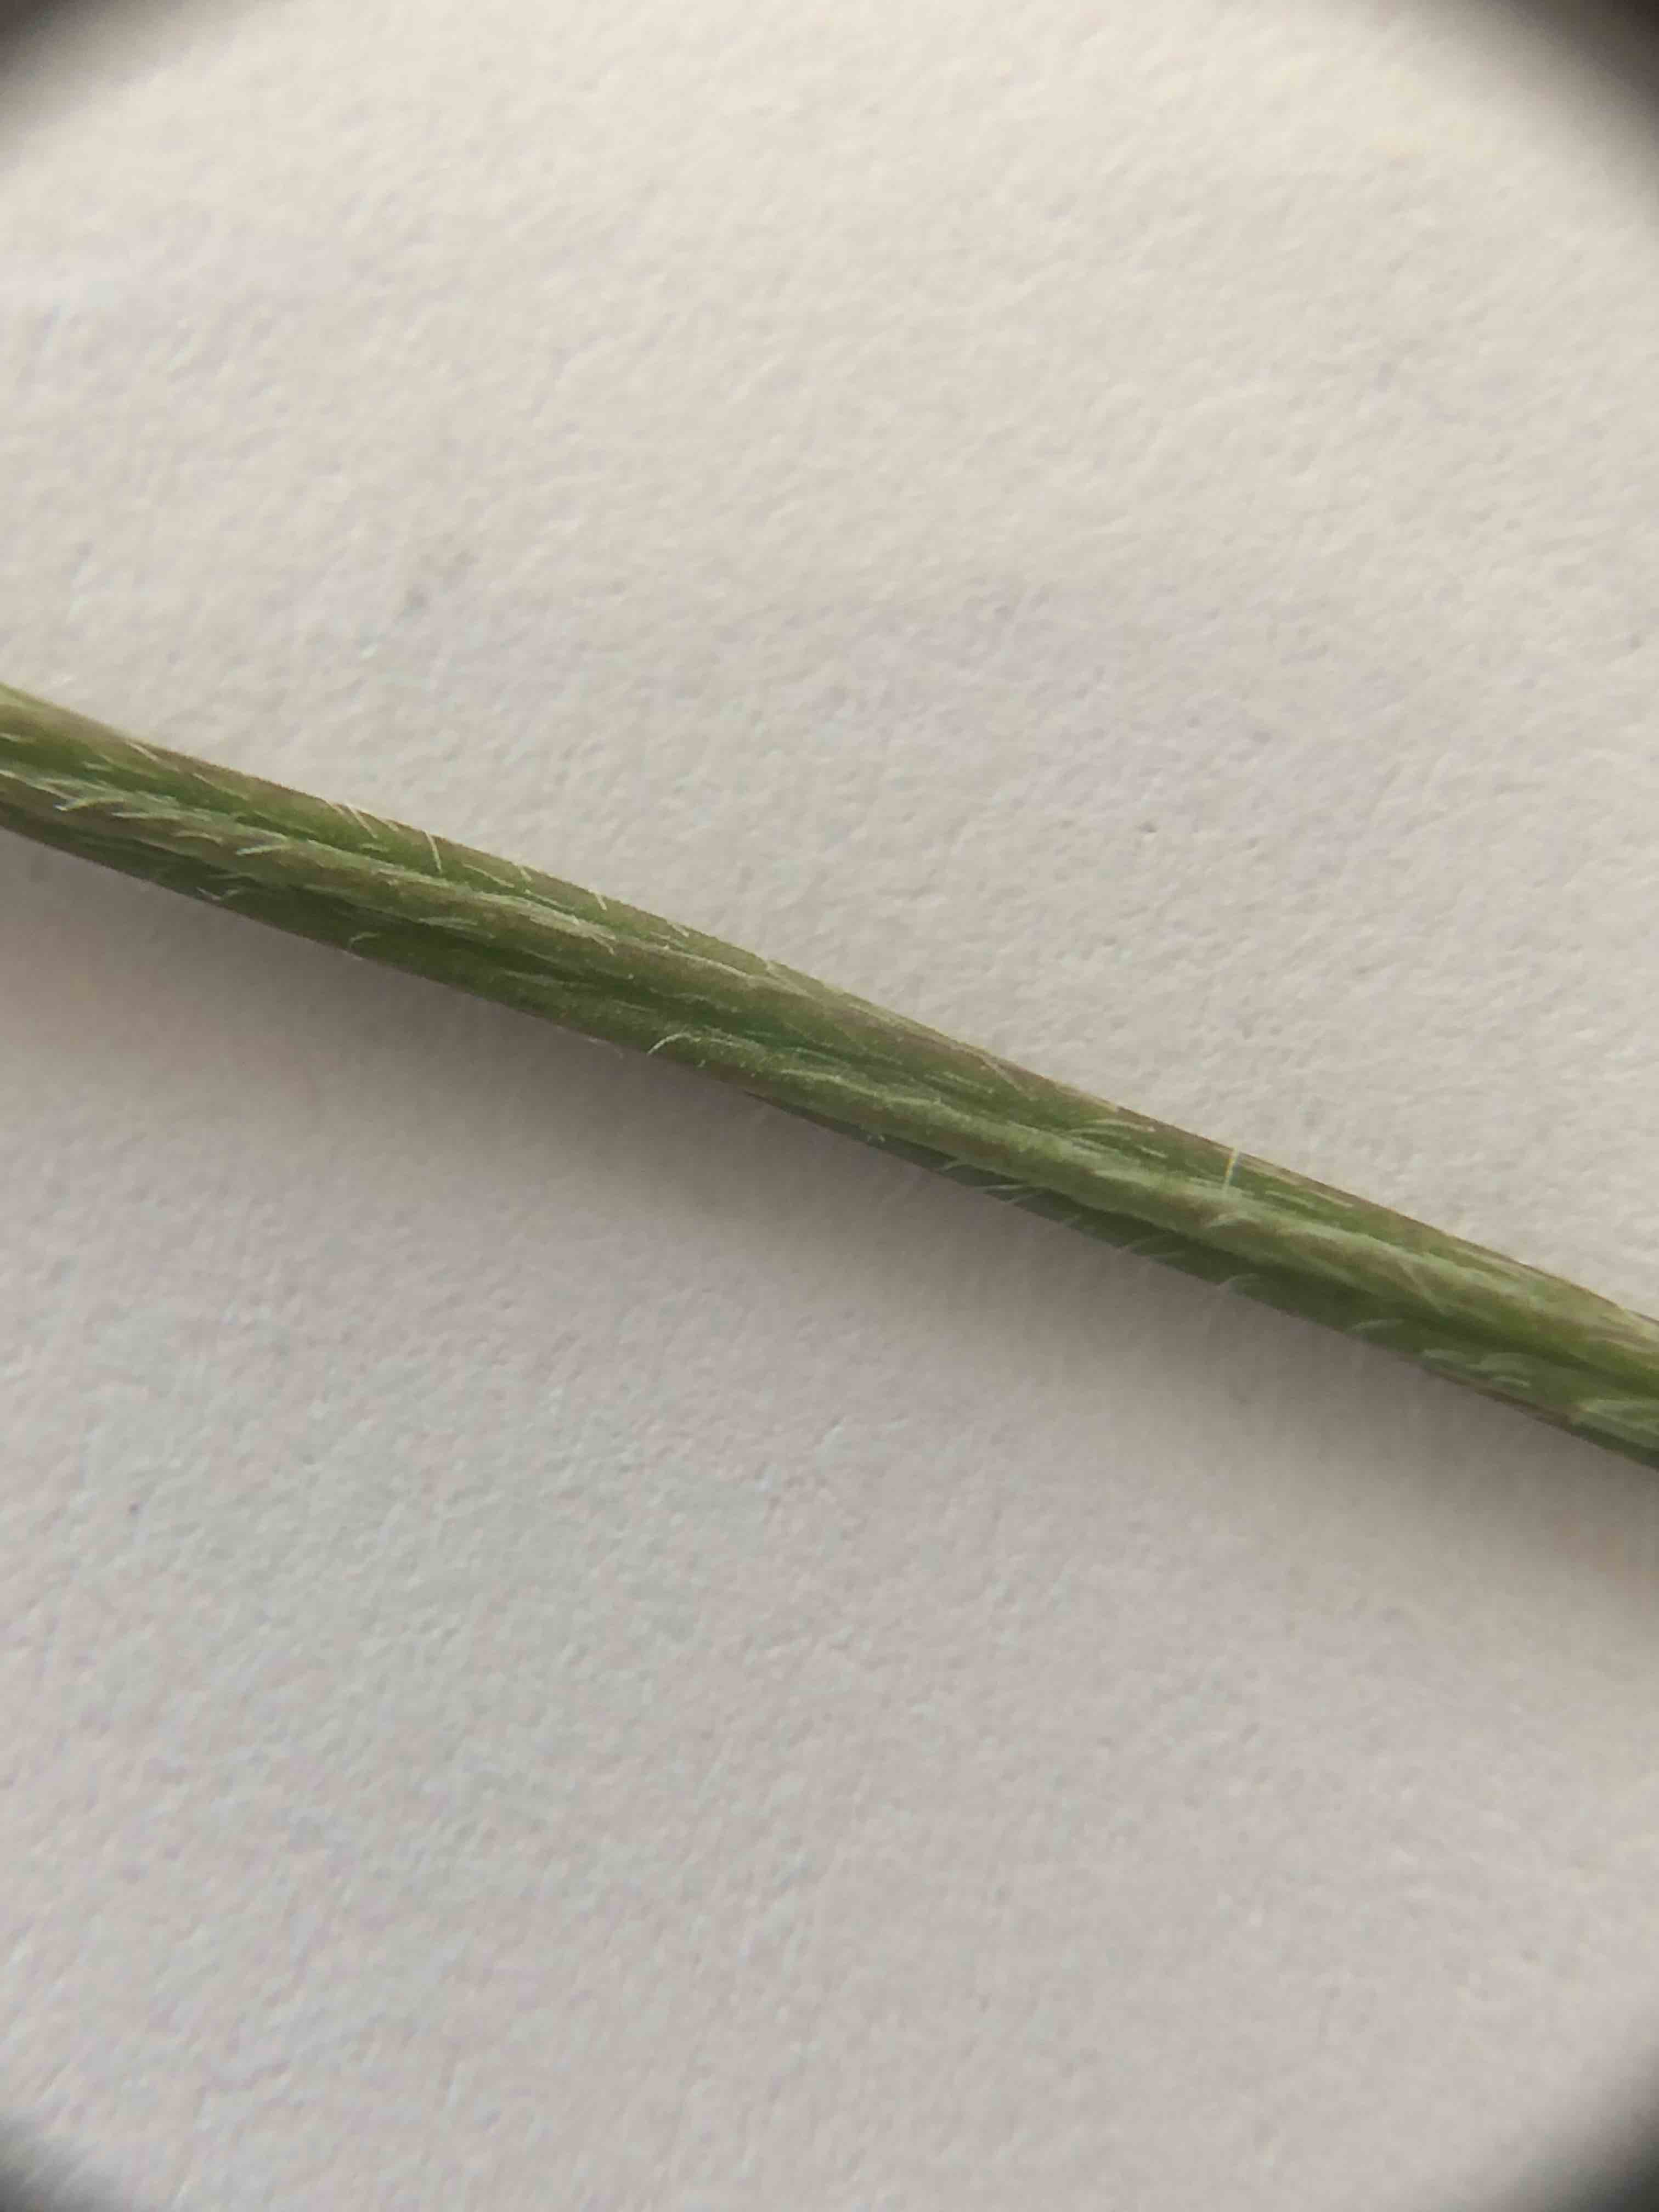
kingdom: Plantae
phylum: Tracheophyta
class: Magnoliopsida
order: Lamiales
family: Plantaginaceae
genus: Plantago
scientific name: Plantago lanceolata
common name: Lancet-vejbred
